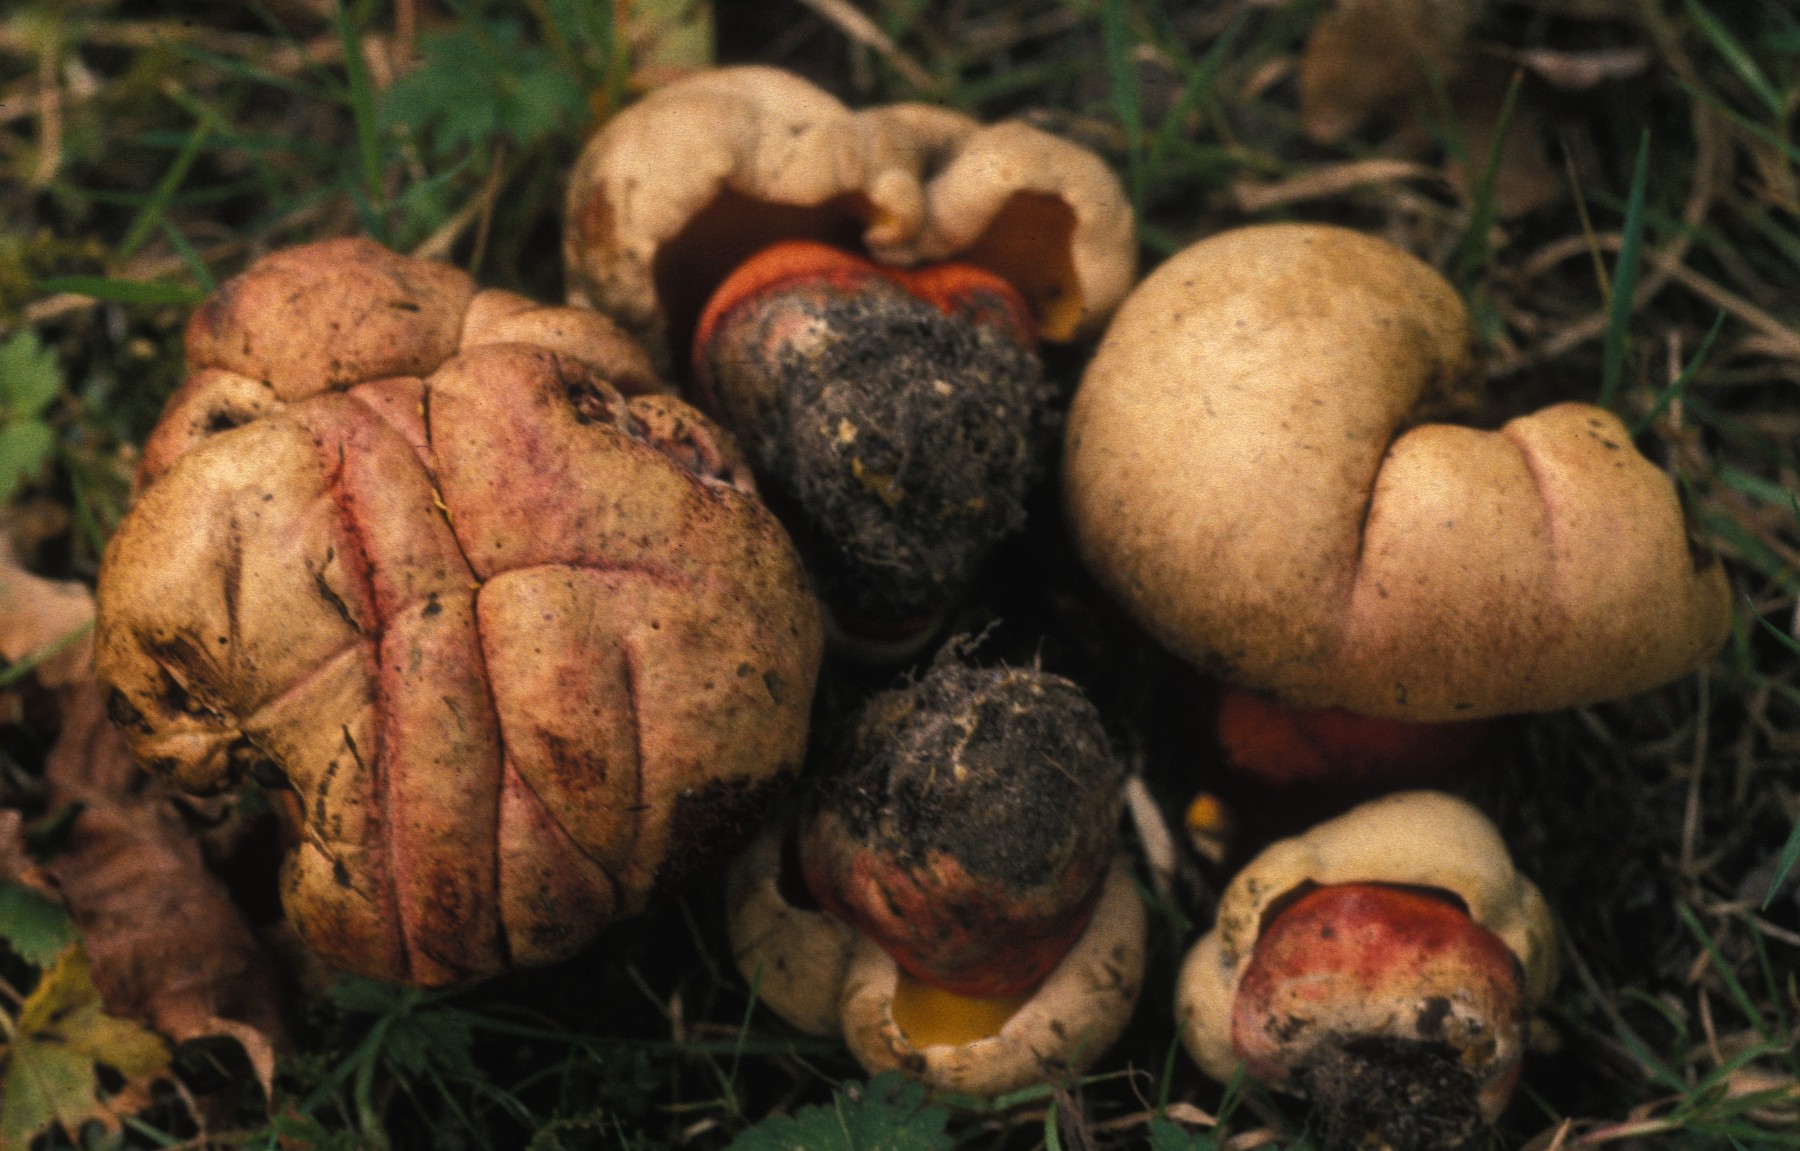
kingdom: Fungi
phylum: Basidiomycota
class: Agaricomycetes
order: Boletales
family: Boletaceae
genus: Rubroboletus
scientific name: Rubroboletus legaliae
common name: djævle-rørhat
